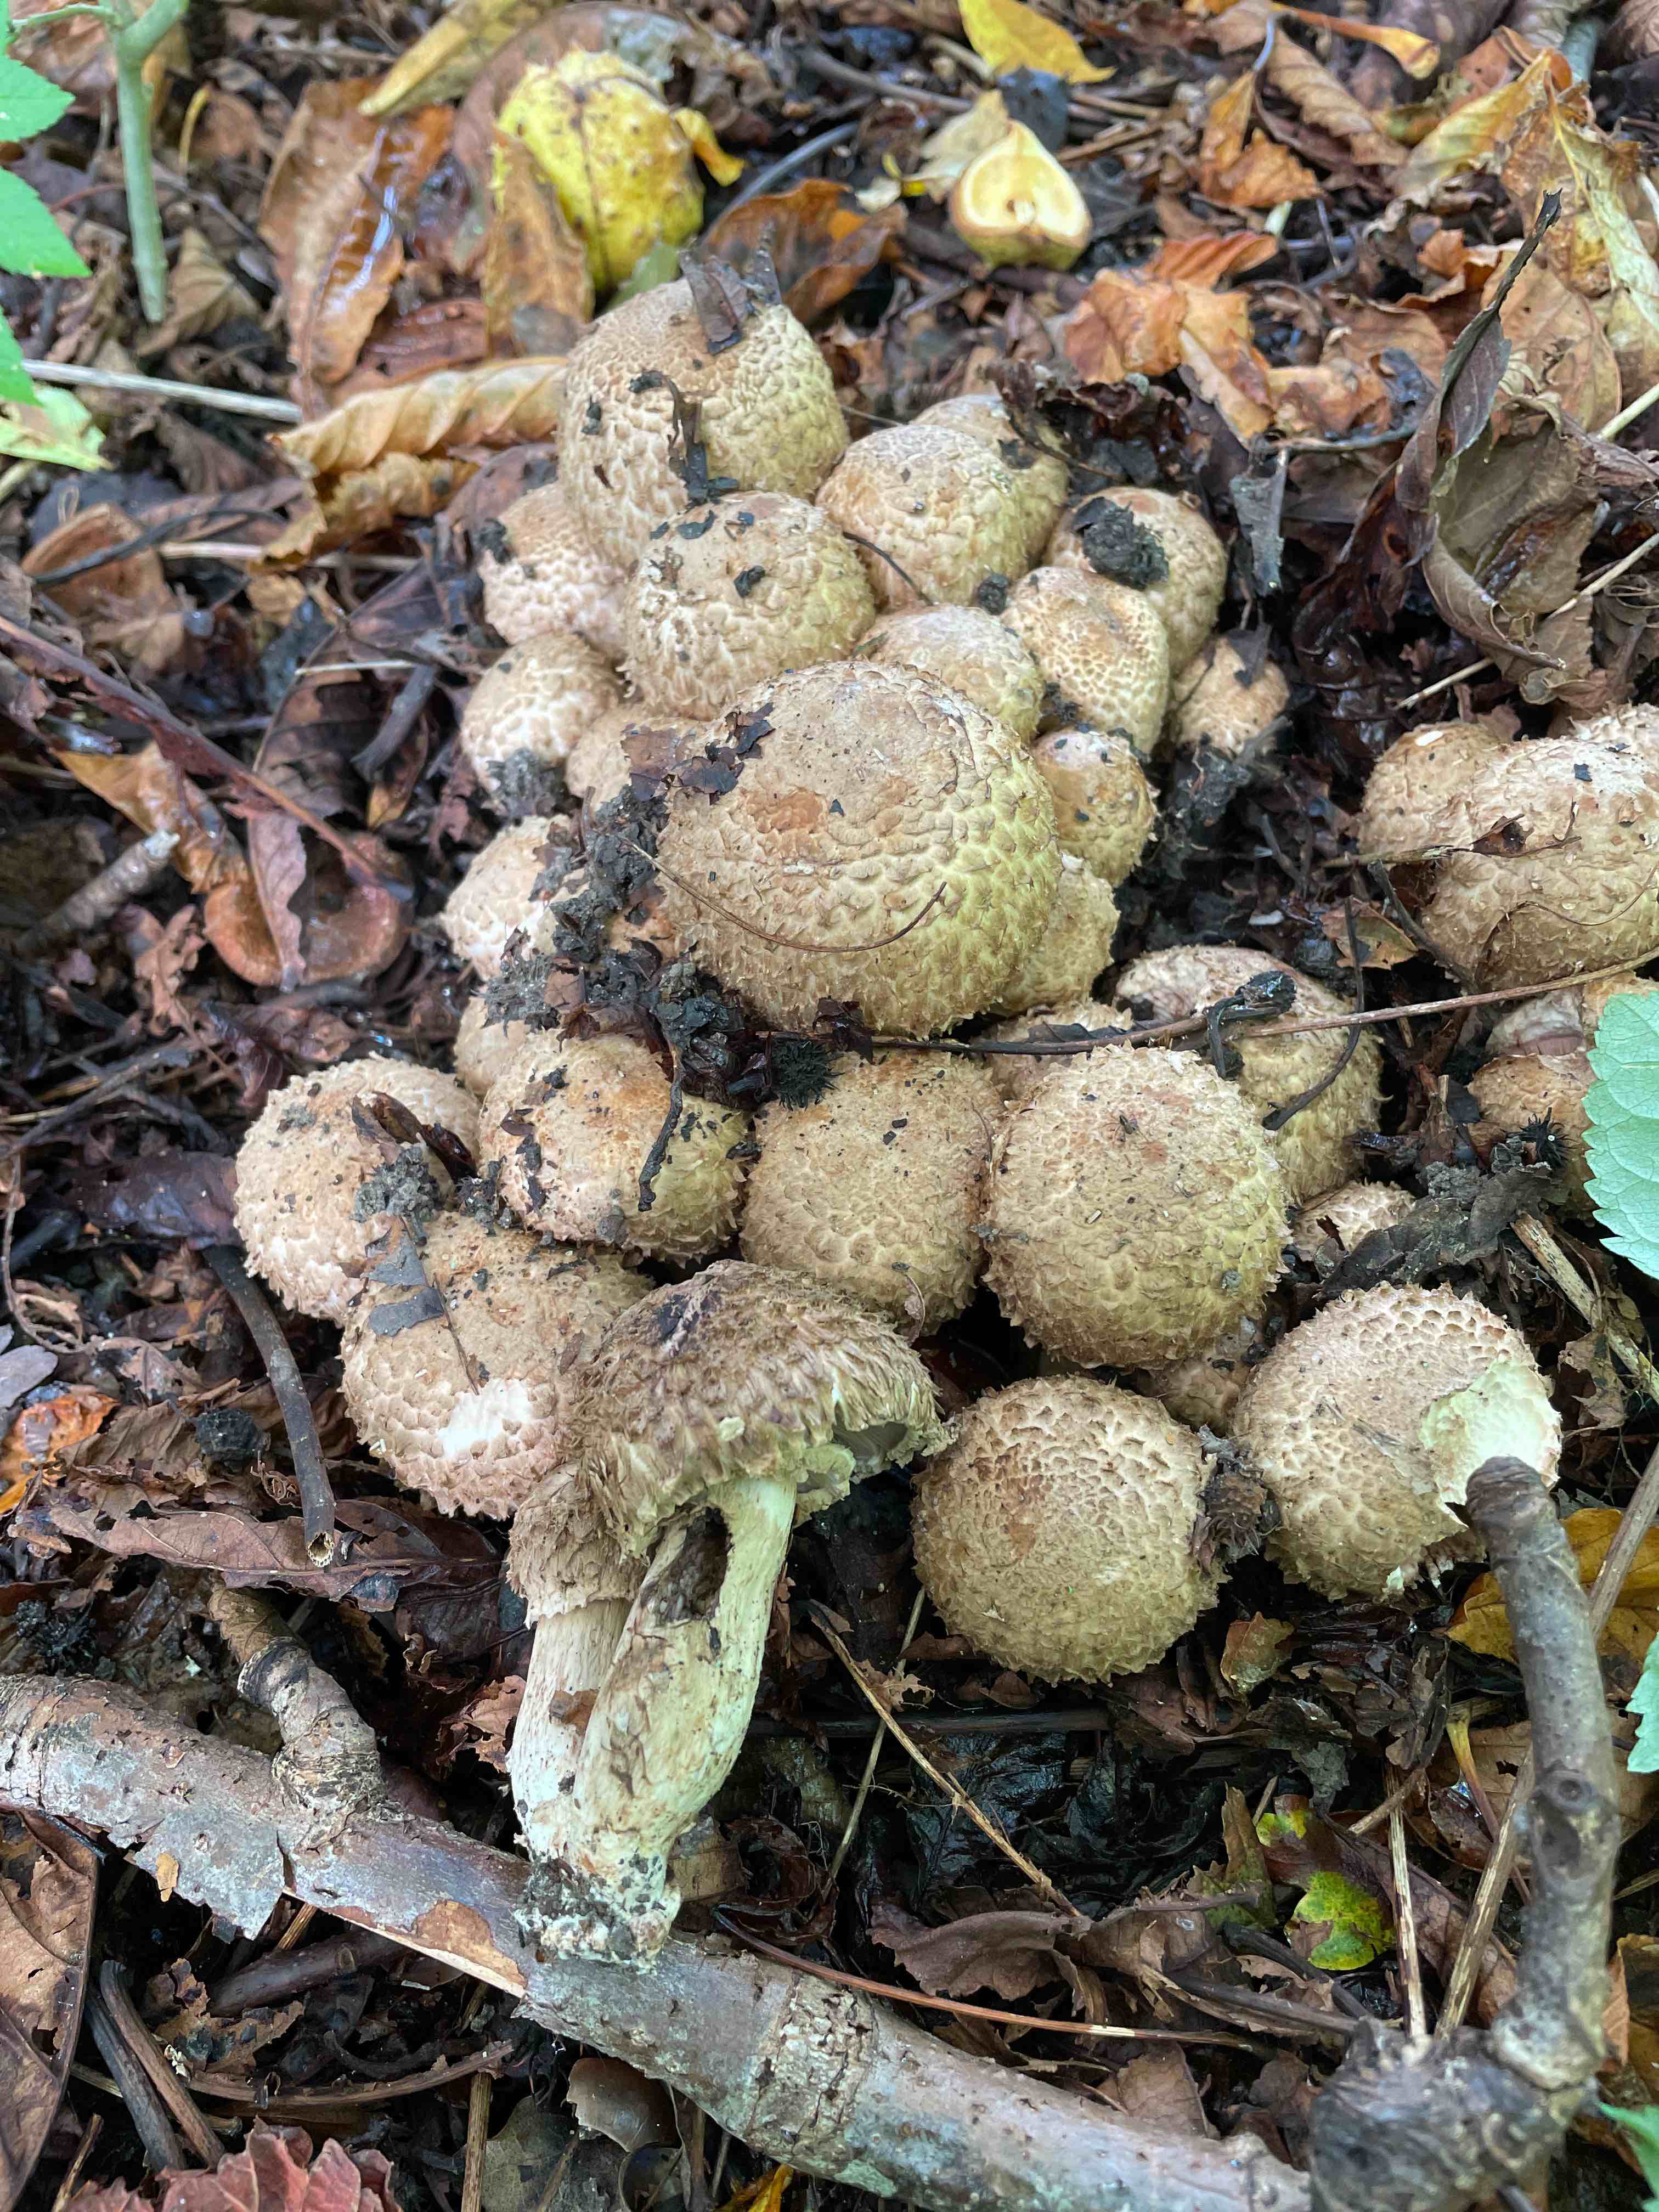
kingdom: Fungi
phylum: Basidiomycota
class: Agaricomycetes
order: Agaricales
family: Agaricaceae
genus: Agaricus
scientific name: Agaricus bohusii
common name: krumskællet champignon
